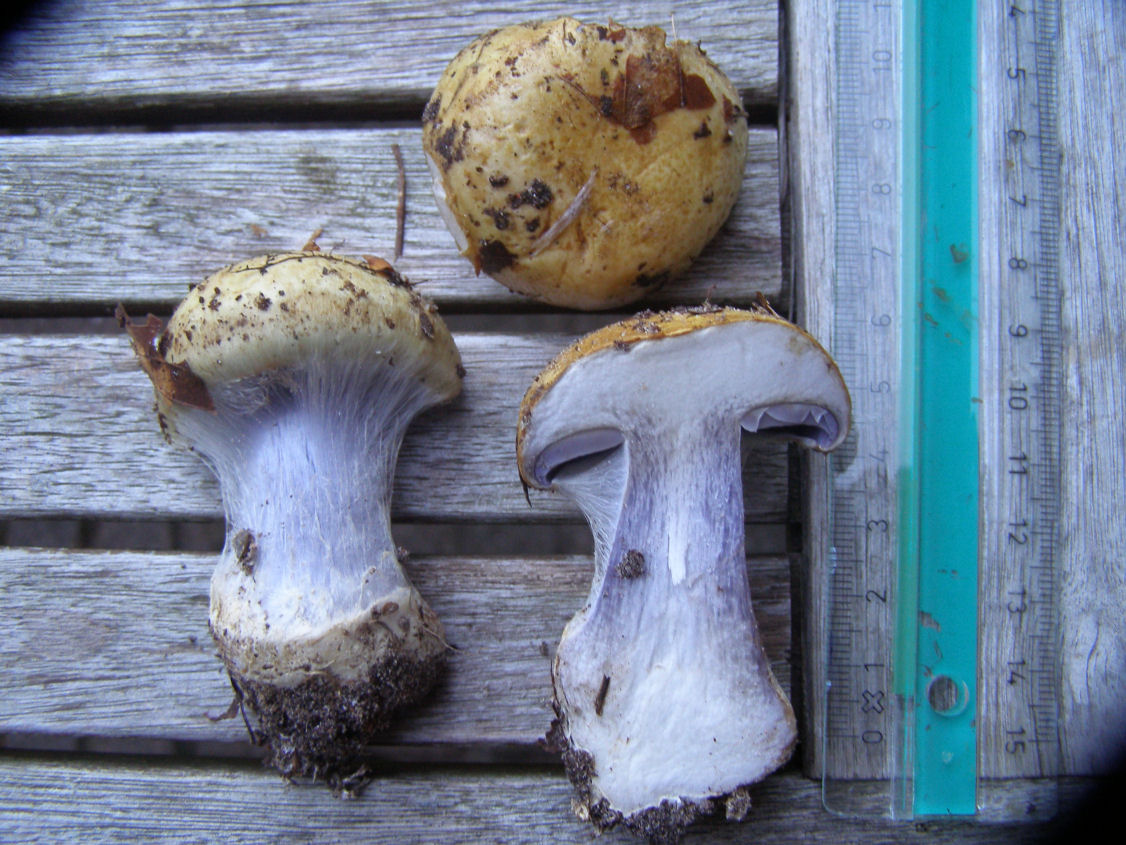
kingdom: Fungi
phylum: Basidiomycota
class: Agaricomycetes
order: Agaricales
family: Cortinariaceae
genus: Cortinarius
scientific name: Cortinarius anserinus
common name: bøge-slørhat
